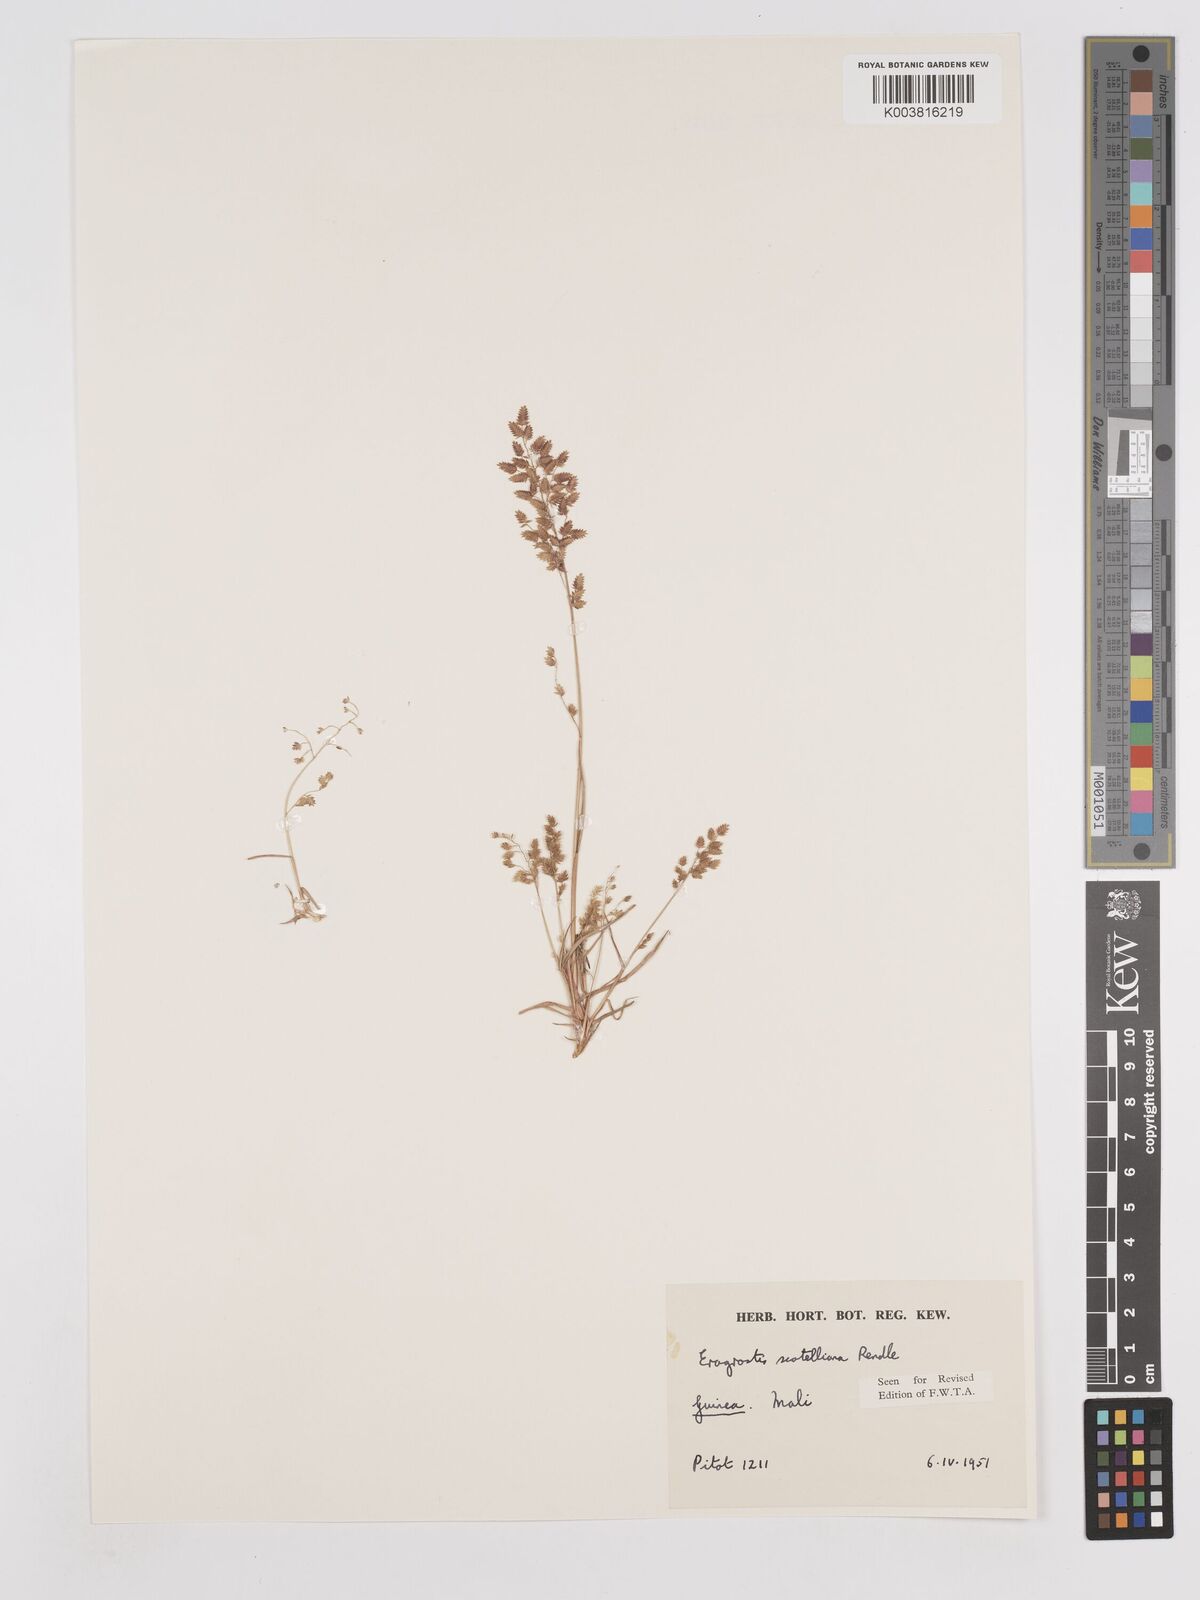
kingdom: Plantae
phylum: Tracheophyta
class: Liliopsida
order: Poales
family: Poaceae
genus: Eragrostis
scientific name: Eragrostis scotelliana
